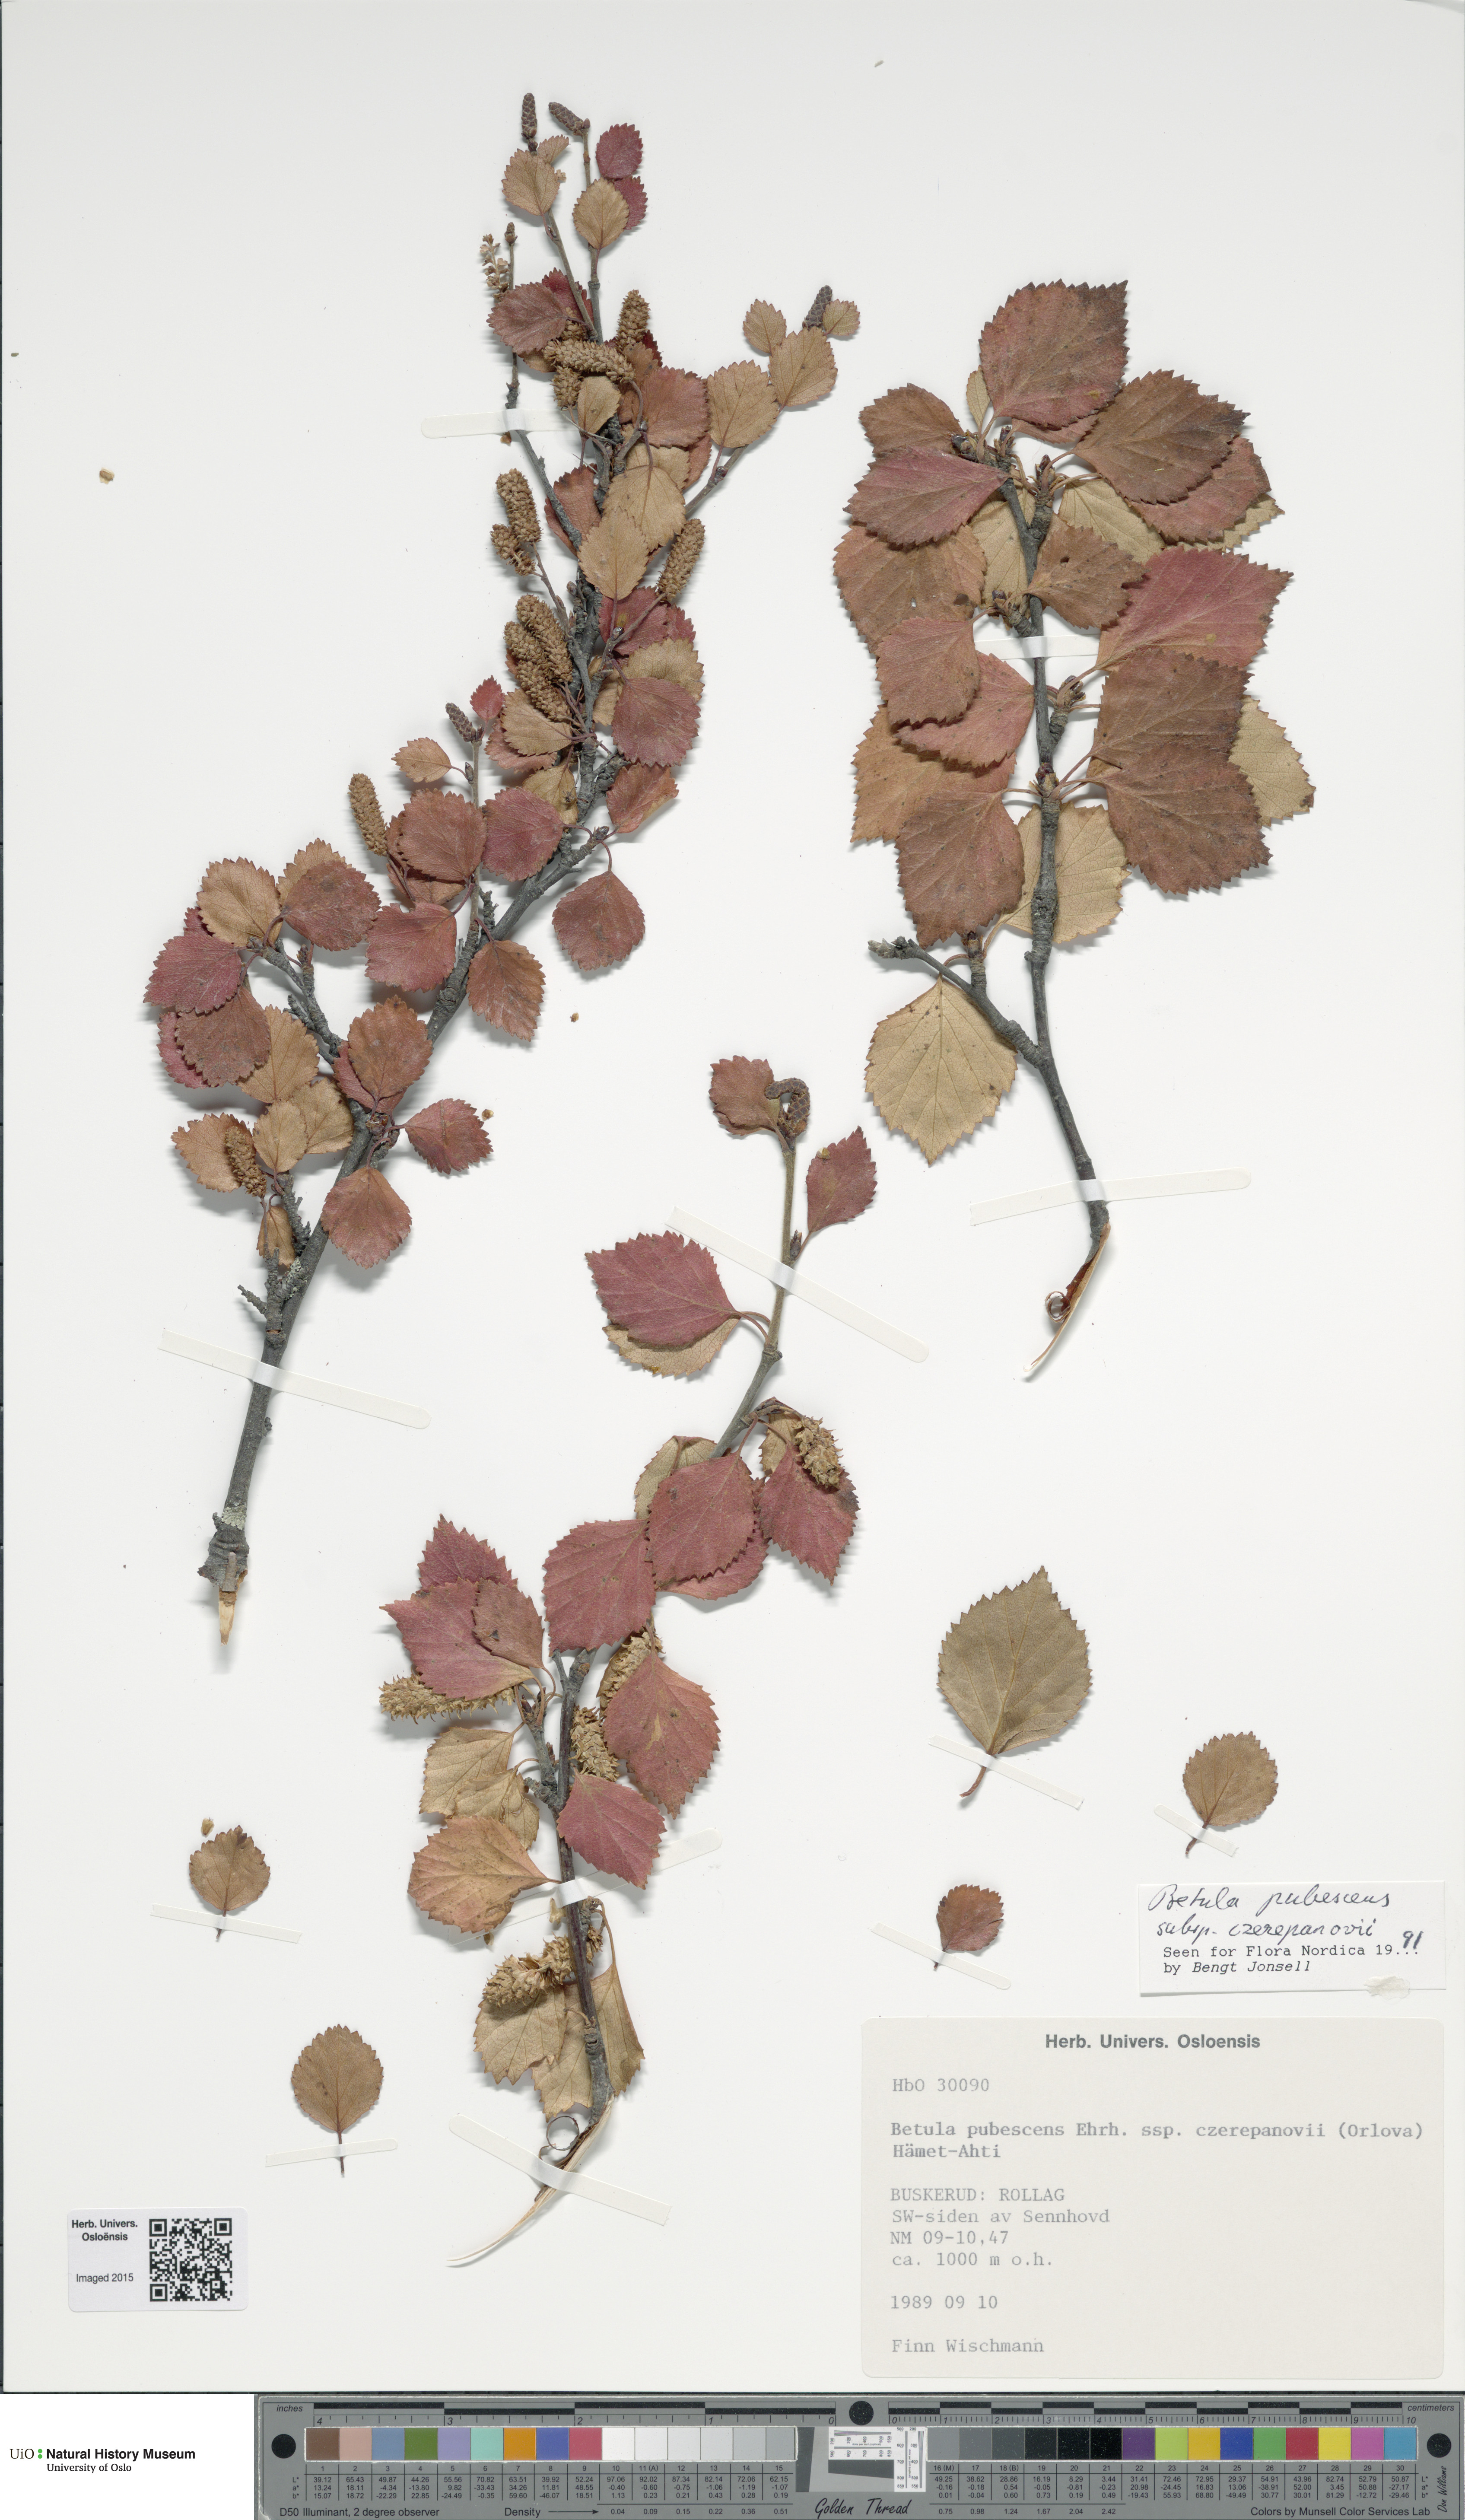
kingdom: Plantae
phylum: Tracheophyta
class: Magnoliopsida
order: Fagales
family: Betulaceae
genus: Betula
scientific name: Betula pubescens
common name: Downy birch
